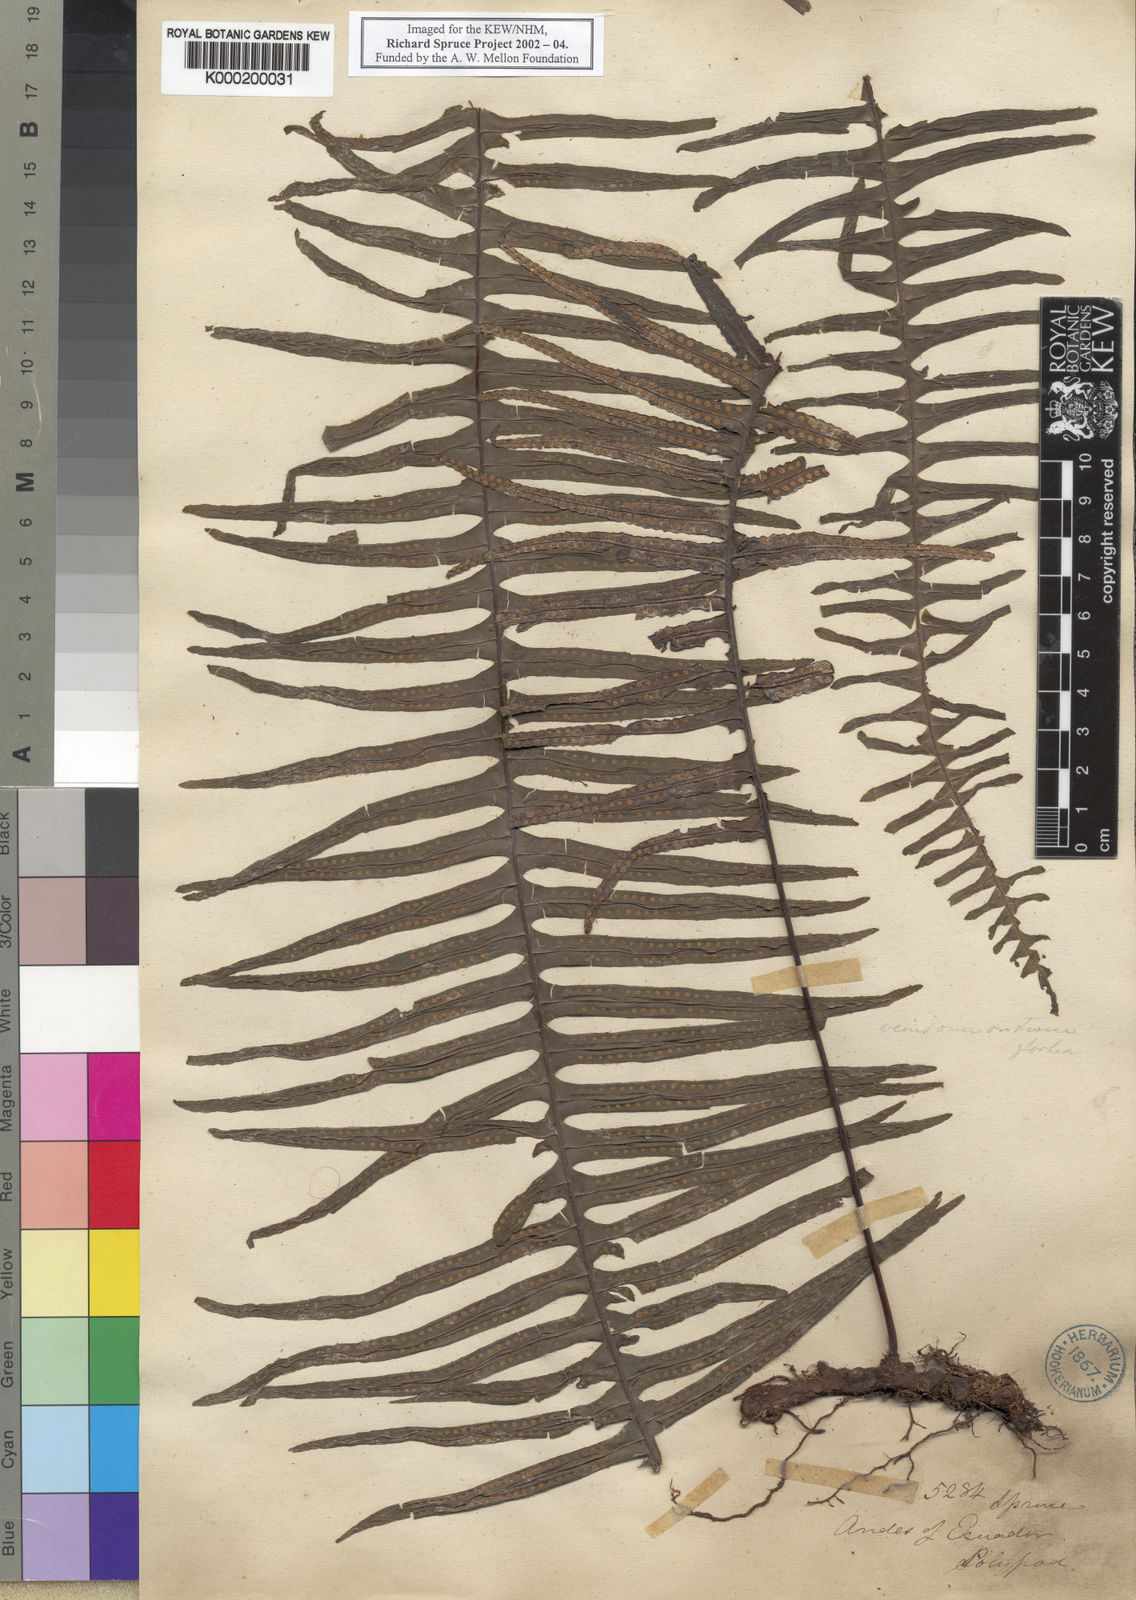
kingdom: Plantae
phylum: Tracheophyta
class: Polypodiopsida
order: Polypodiales
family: Polypodiaceae
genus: Pecluma
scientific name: Pecluma paradiseae
